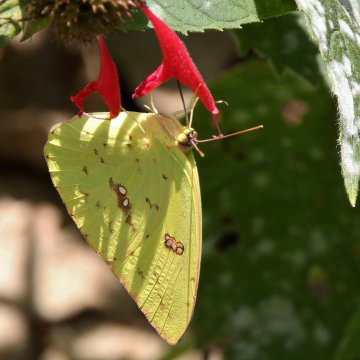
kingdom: Animalia
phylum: Arthropoda
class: Insecta
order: Lepidoptera
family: Pieridae
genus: Phoebis
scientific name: Phoebis sennae
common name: Cloudless Sulphur
